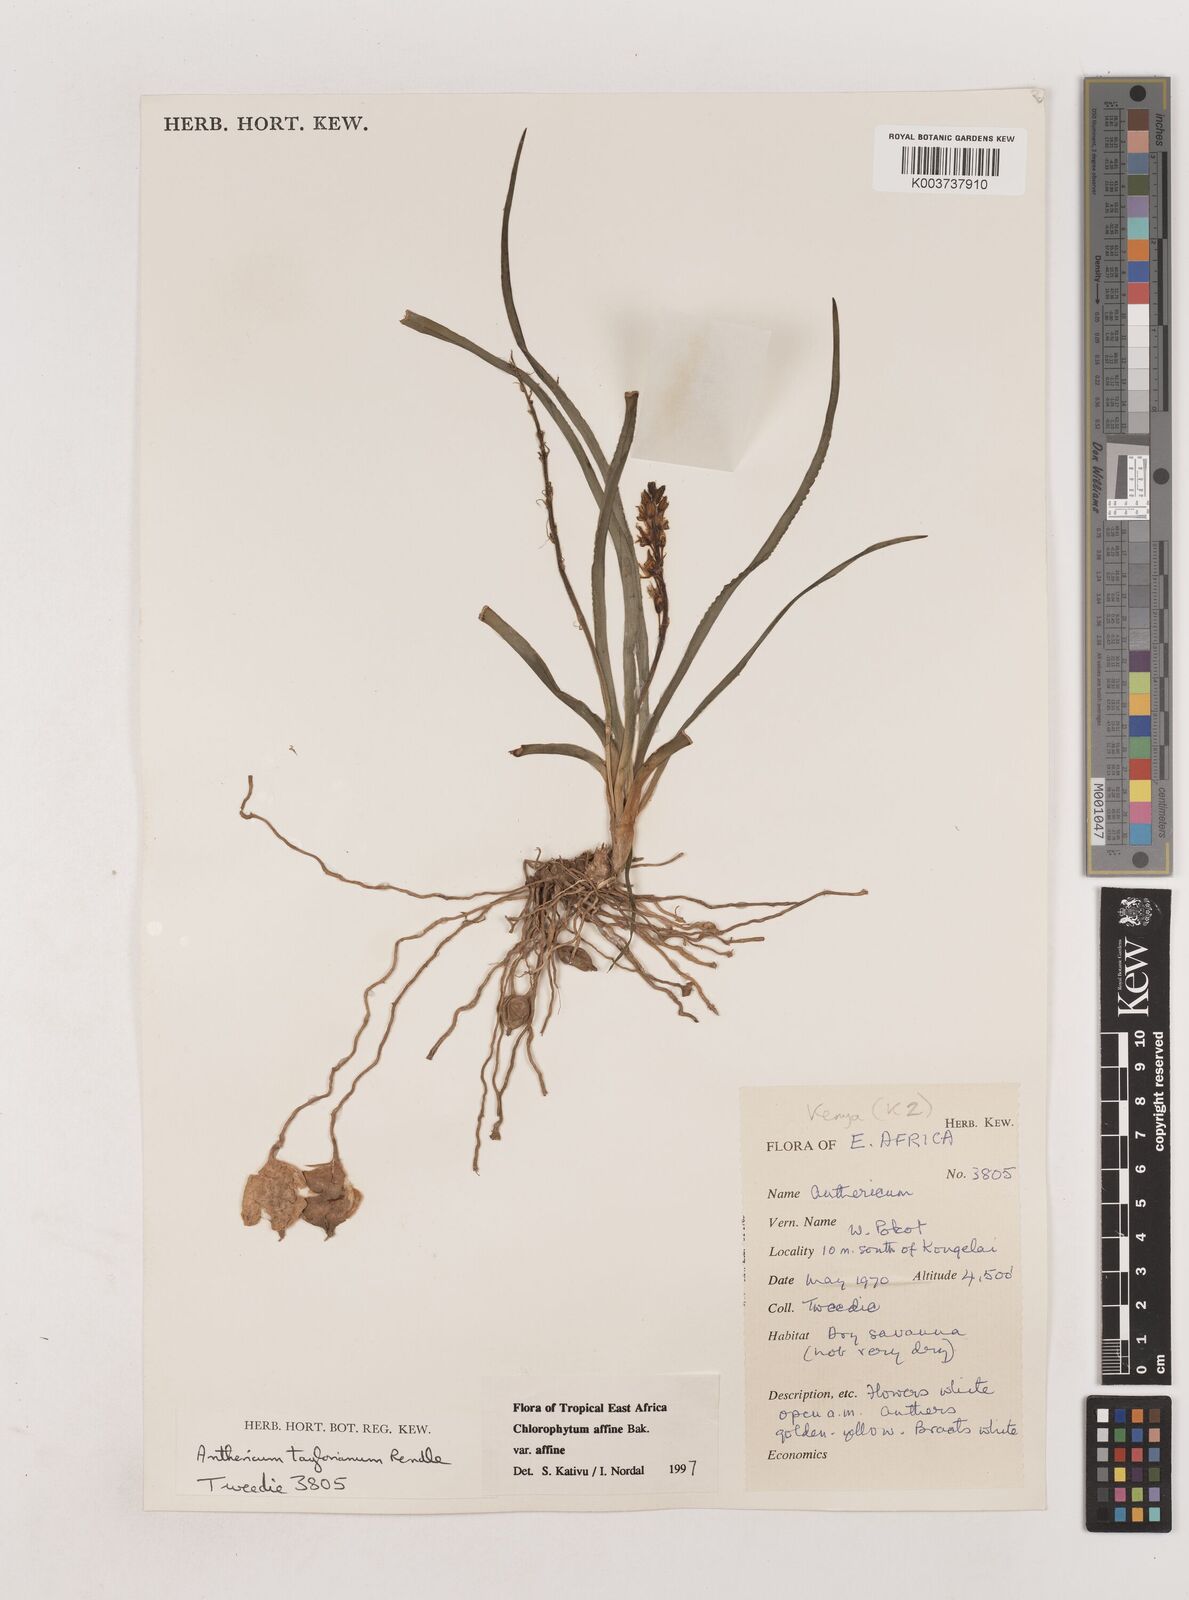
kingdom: Plantae
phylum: Tracheophyta
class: Liliopsida
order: Asparagales
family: Asparagaceae
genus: Chlorophytum
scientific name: Chlorophytum affine
